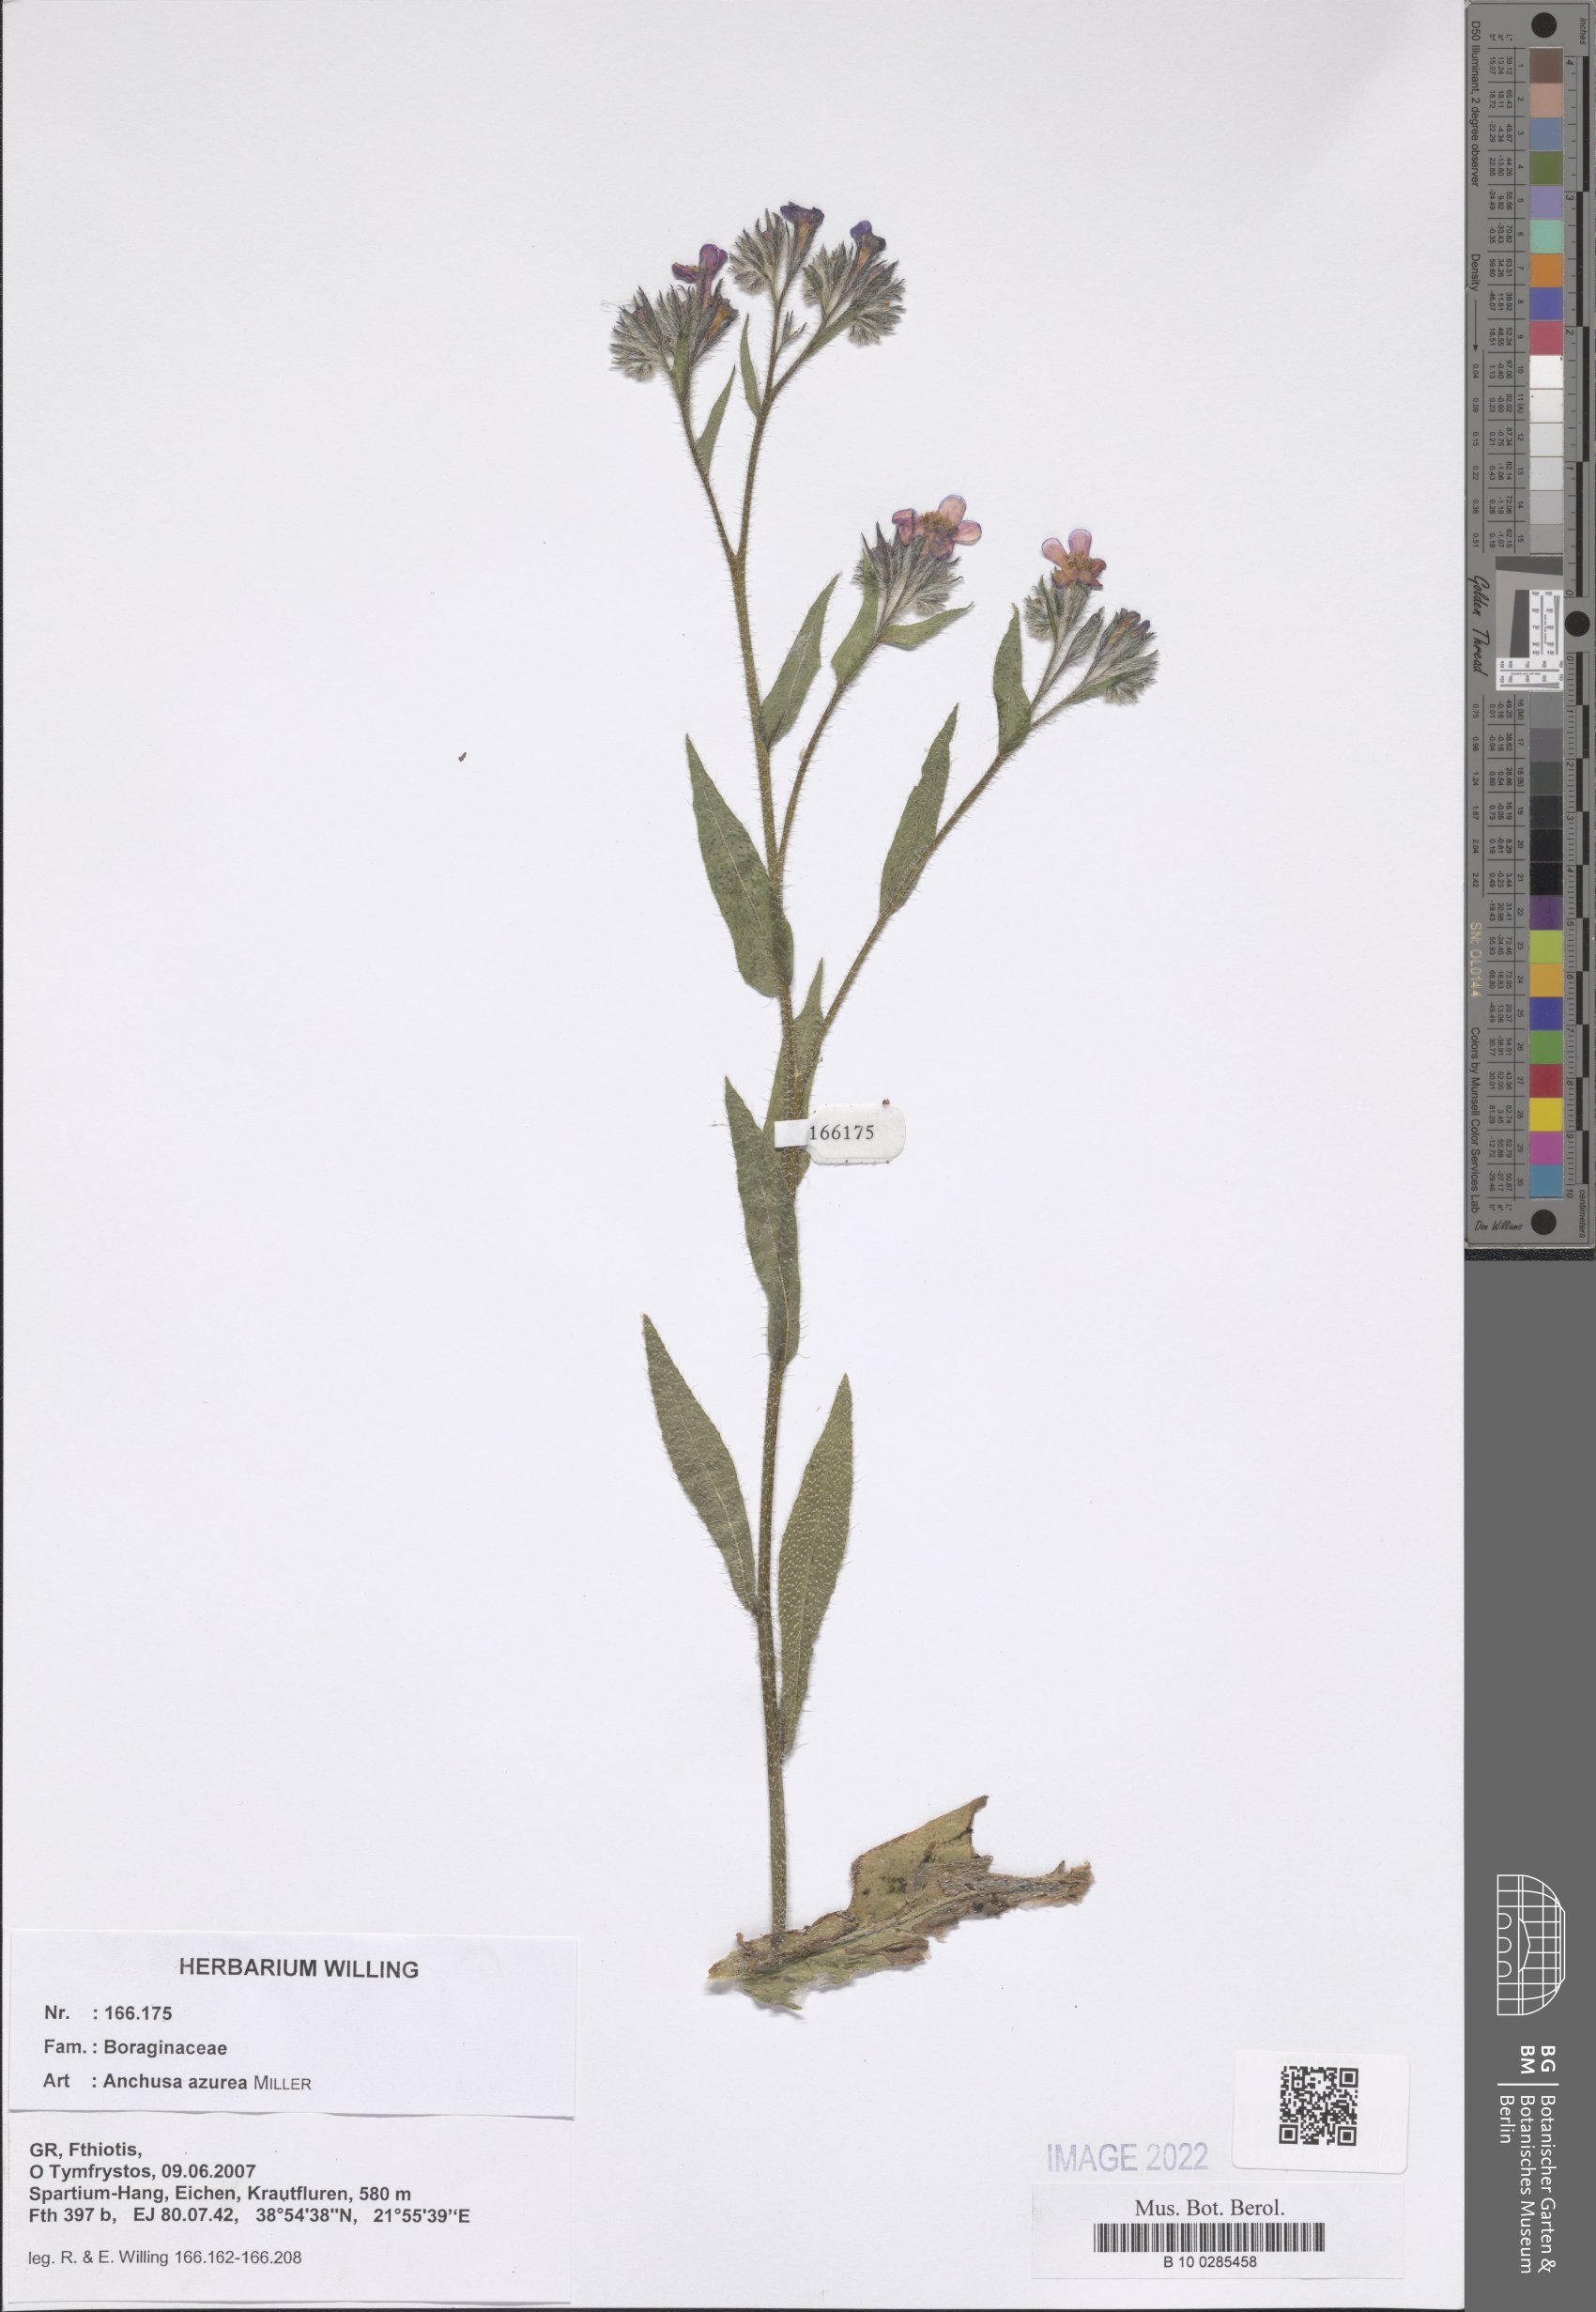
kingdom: Plantae
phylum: Tracheophyta
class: Magnoliopsida
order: Boraginales
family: Boraginaceae
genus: Anchusa
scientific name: Anchusa azurea
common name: Garden anchusa
